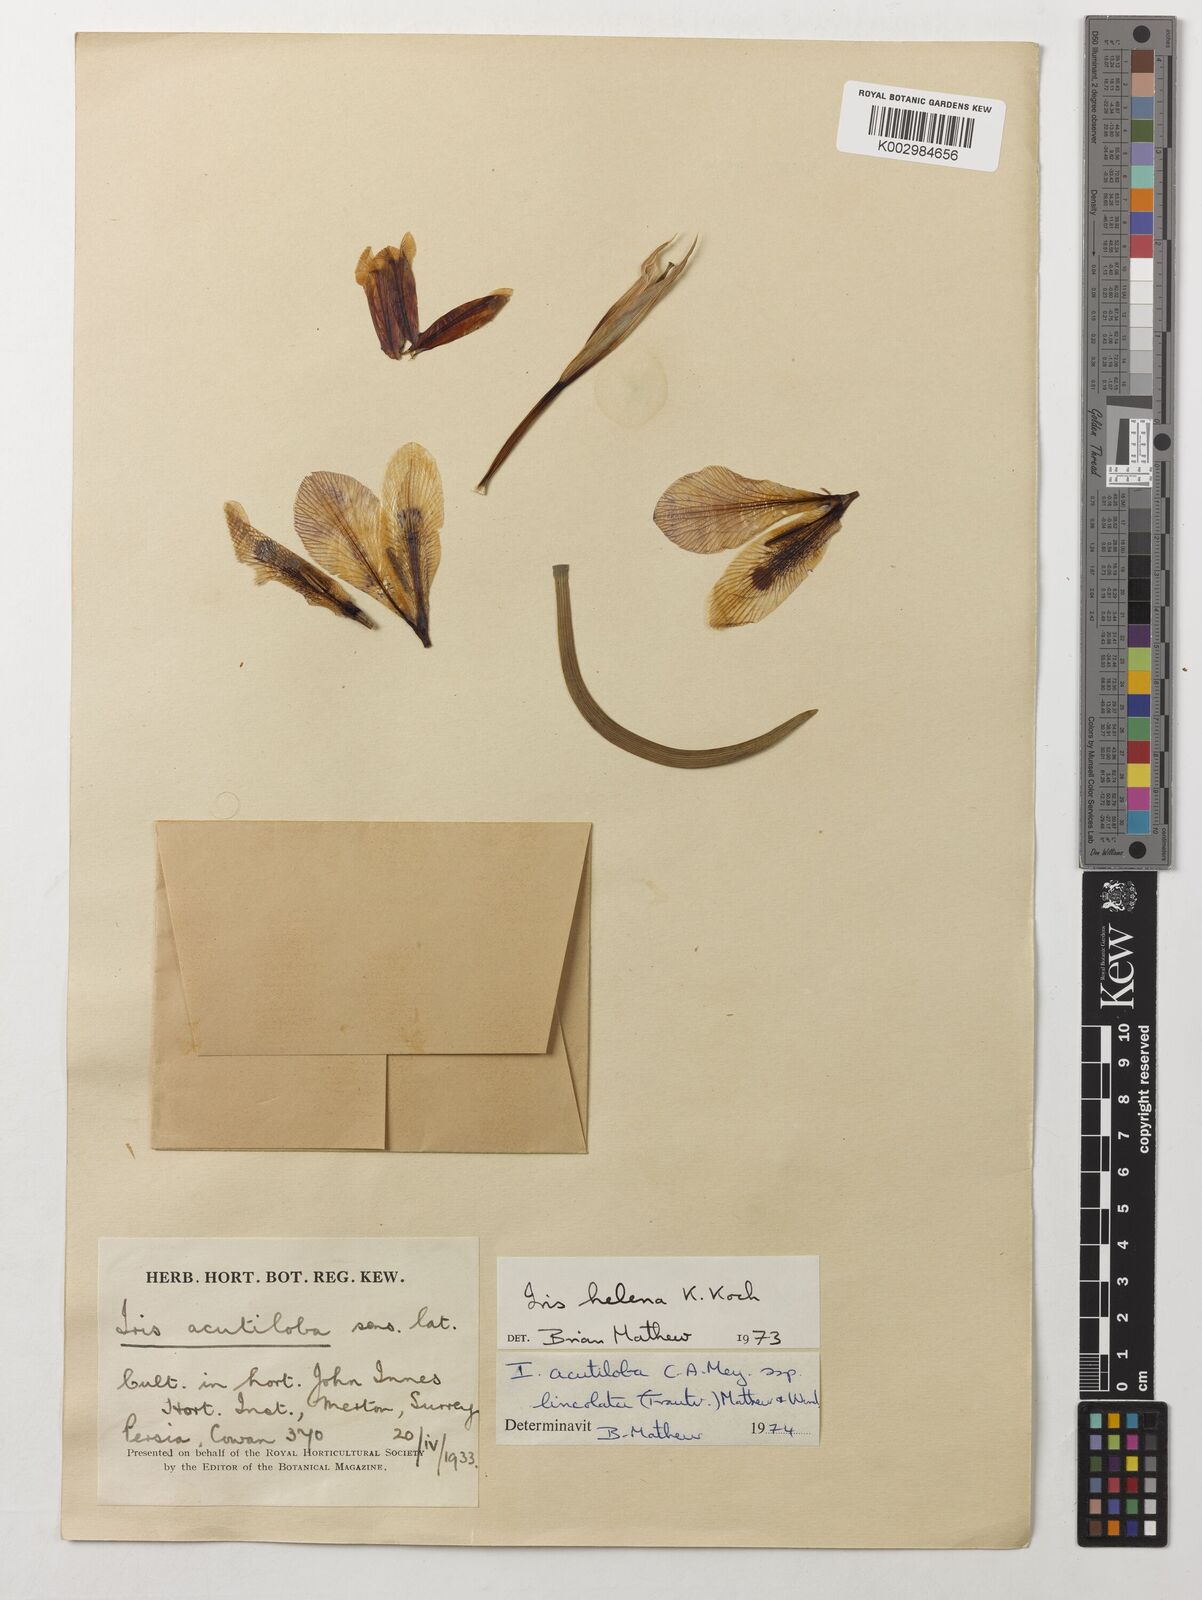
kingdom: Plantae
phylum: Tracheophyta
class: Liliopsida
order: Asparagales
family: Iridaceae
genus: Iris
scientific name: Iris acutiloba
